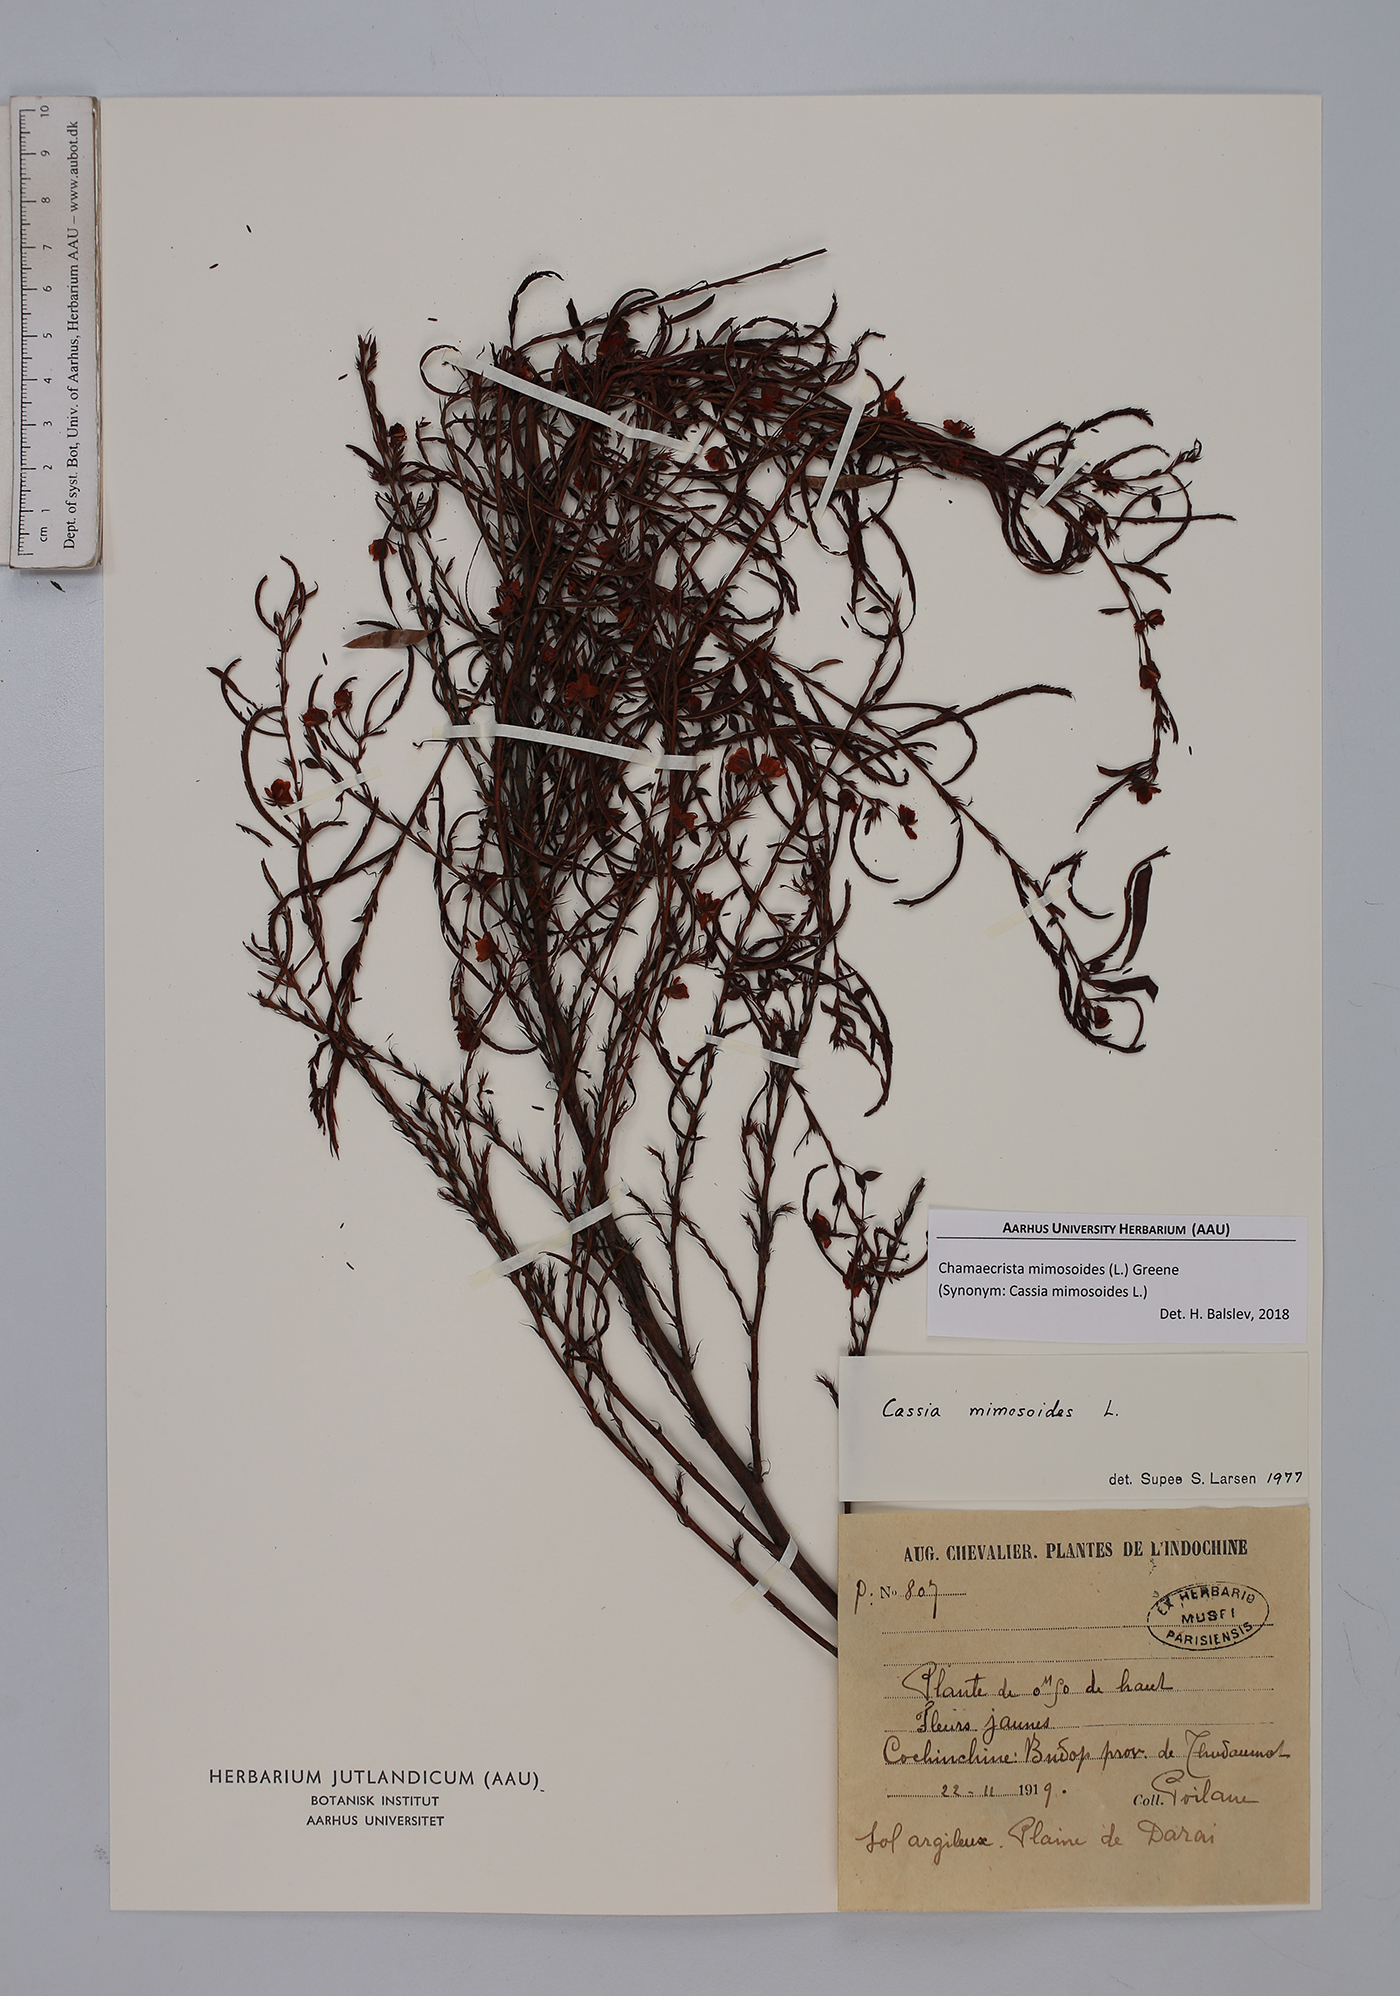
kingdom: Plantae
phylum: Tracheophyta
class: Magnoliopsida
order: Fabales
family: Fabaceae
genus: Chamaecrista
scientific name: Chamaecrista mimosoides
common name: Fish-bone cassia
